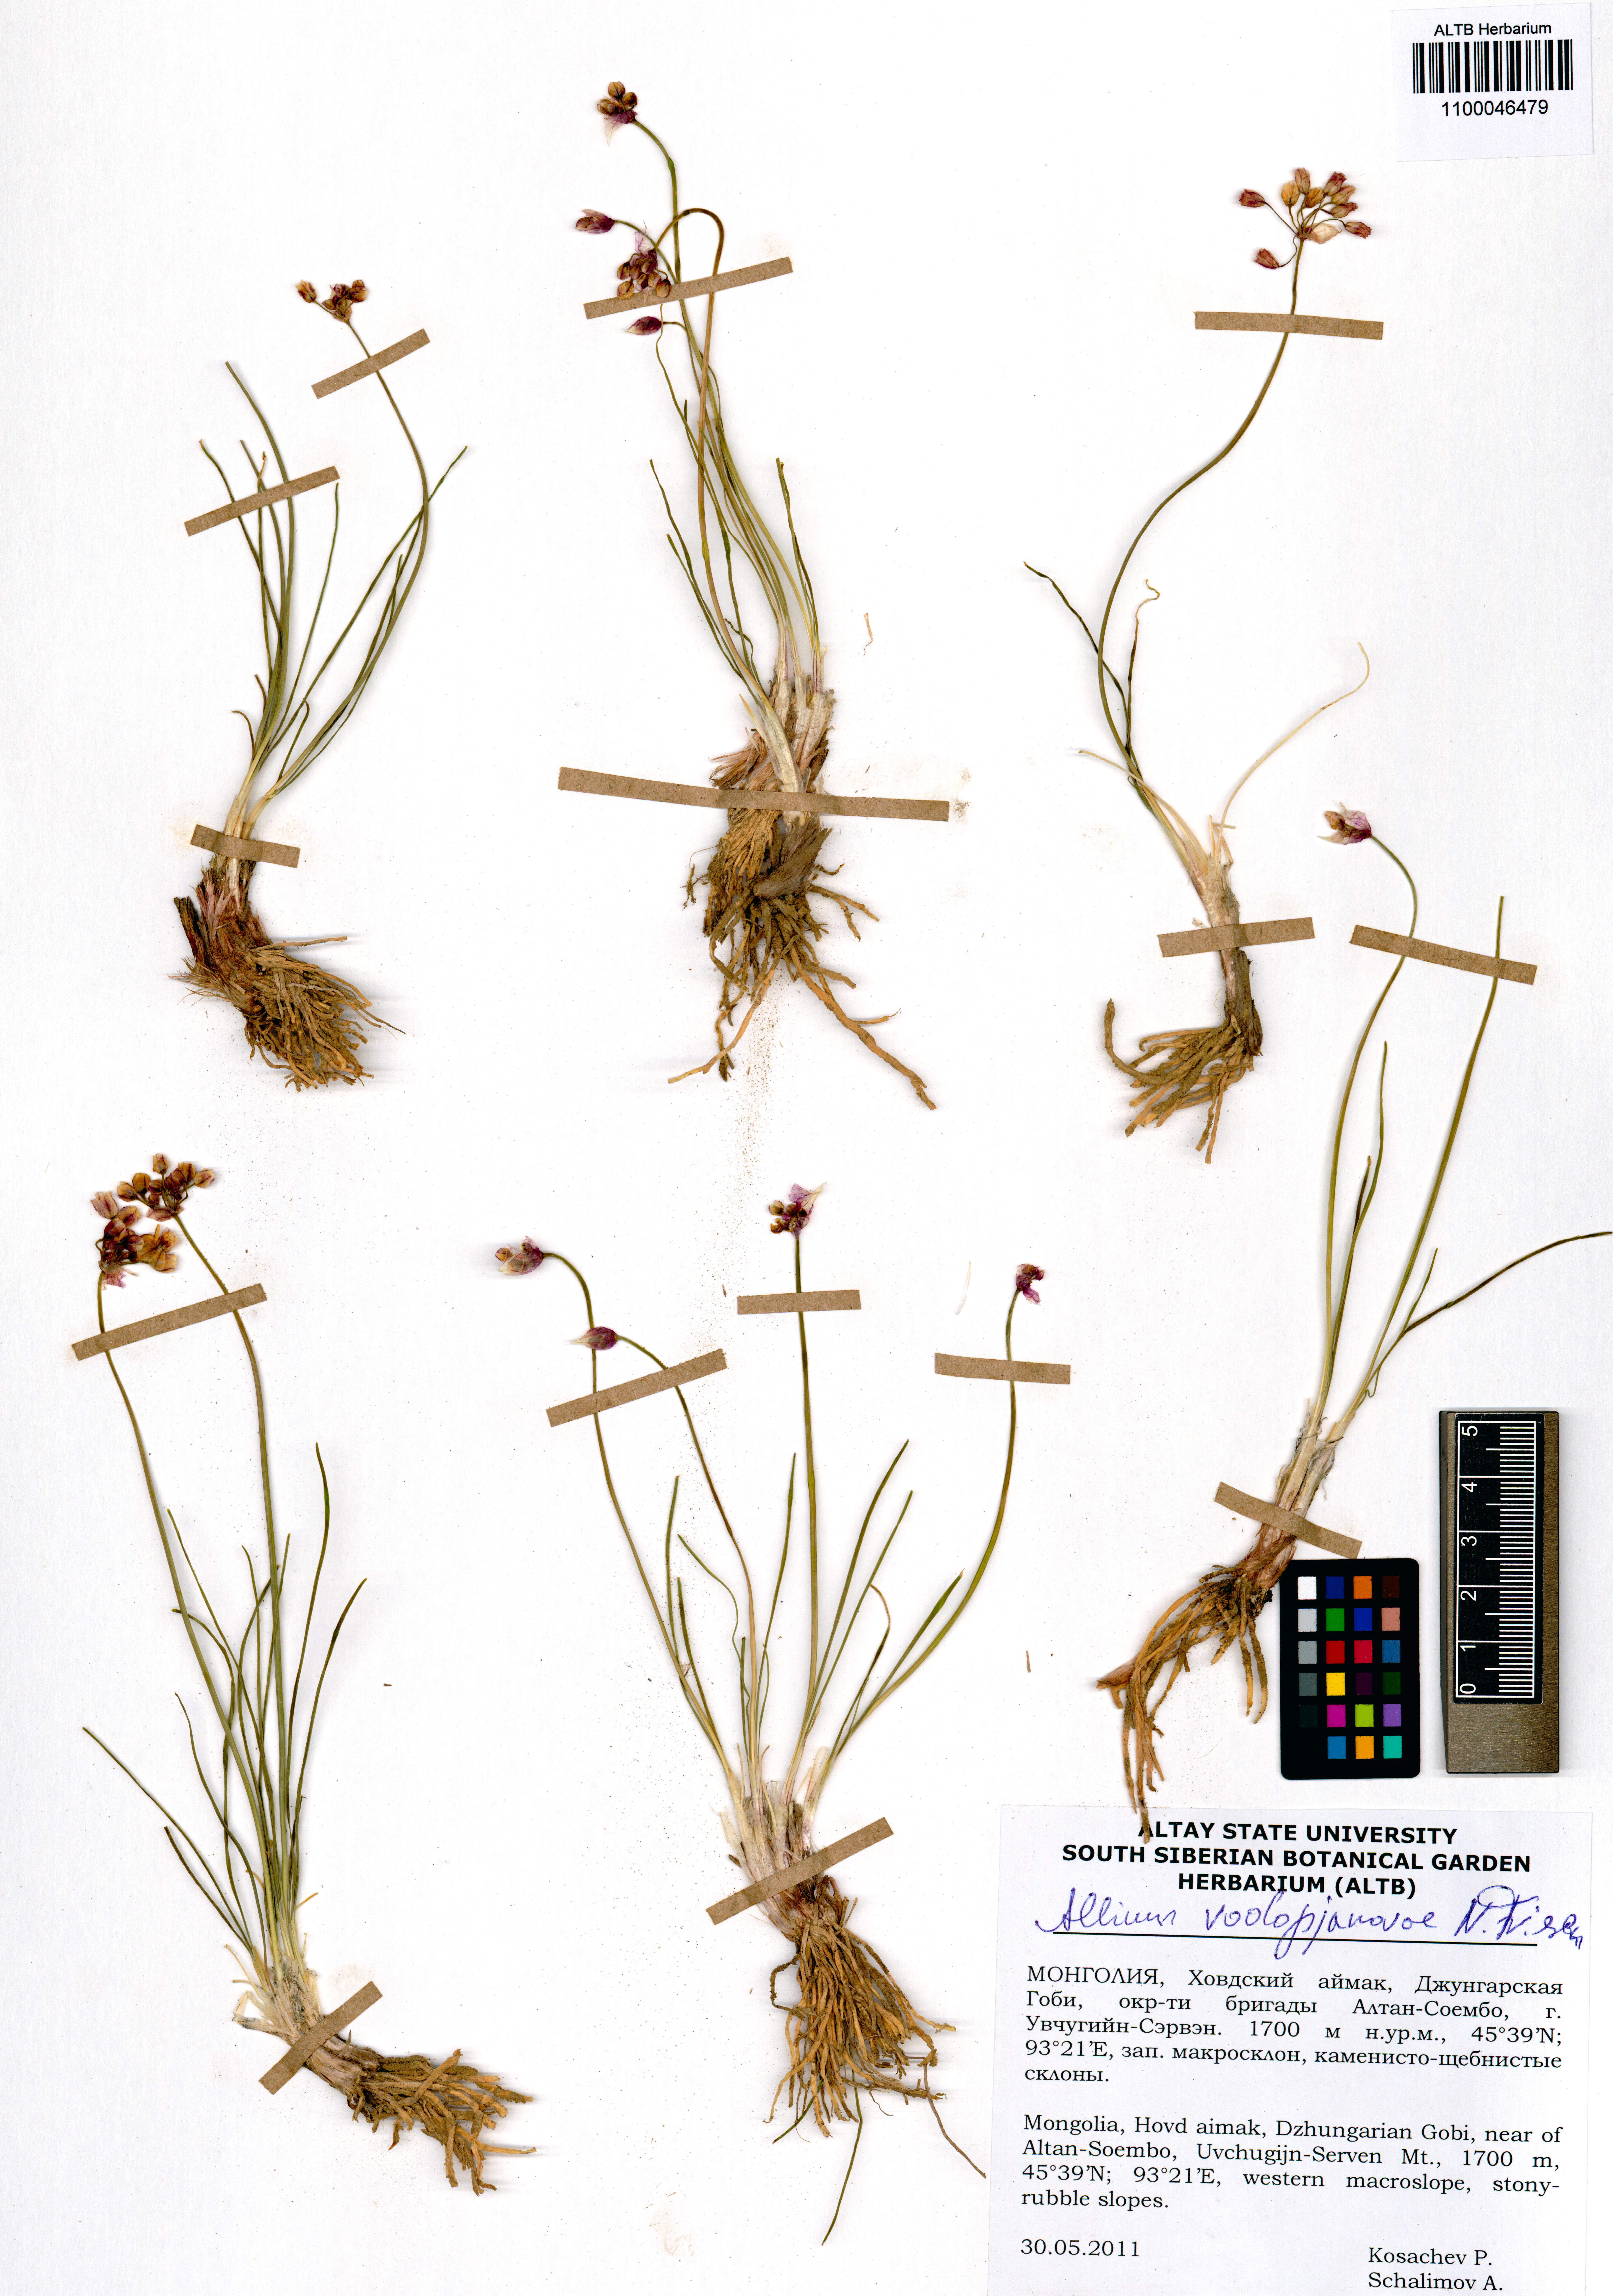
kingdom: Plantae
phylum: Tracheophyta
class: Liliopsida
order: Asparagales
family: Amaryllidaceae
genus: Allium
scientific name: Allium vodopjanovae
